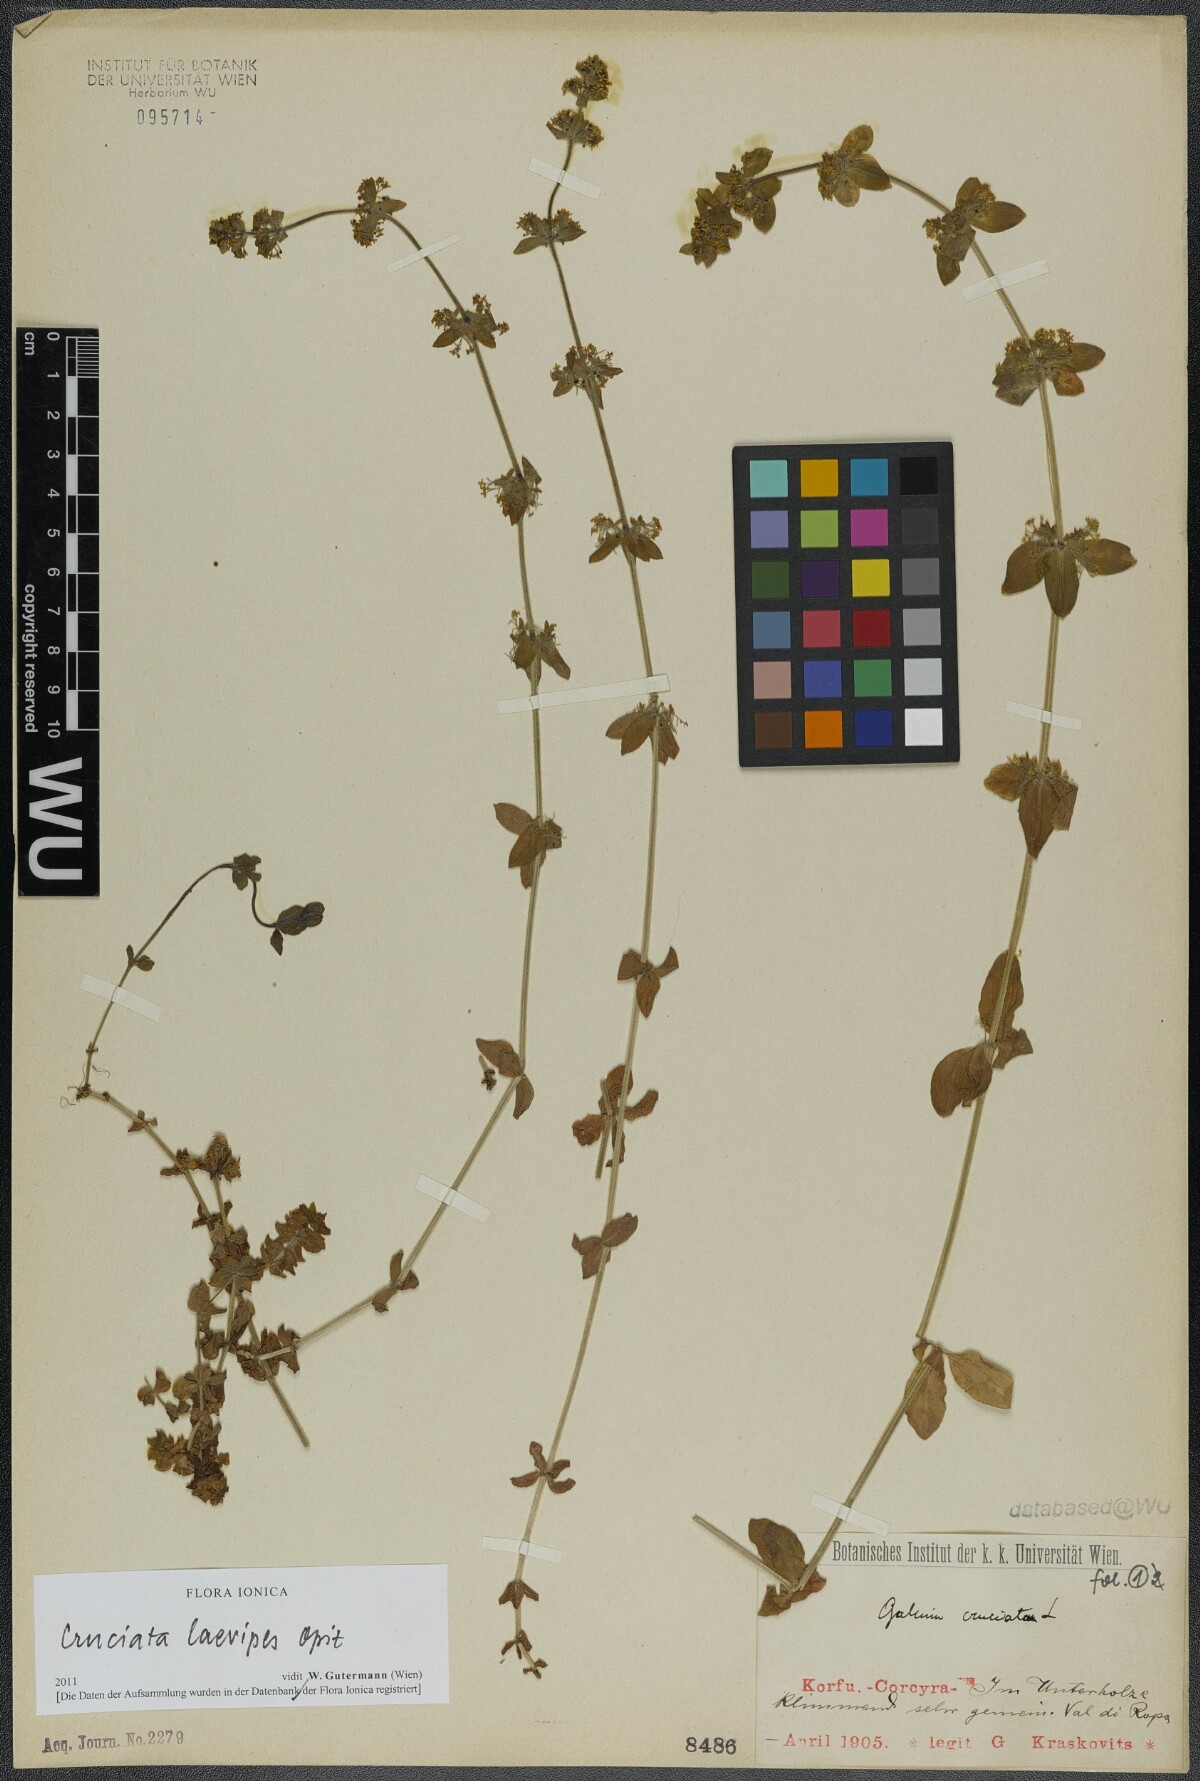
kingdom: Plantae
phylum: Tracheophyta
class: Magnoliopsida
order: Gentianales
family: Rubiaceae
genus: Cruciata
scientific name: Cruciata laevipes
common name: Crosswort
